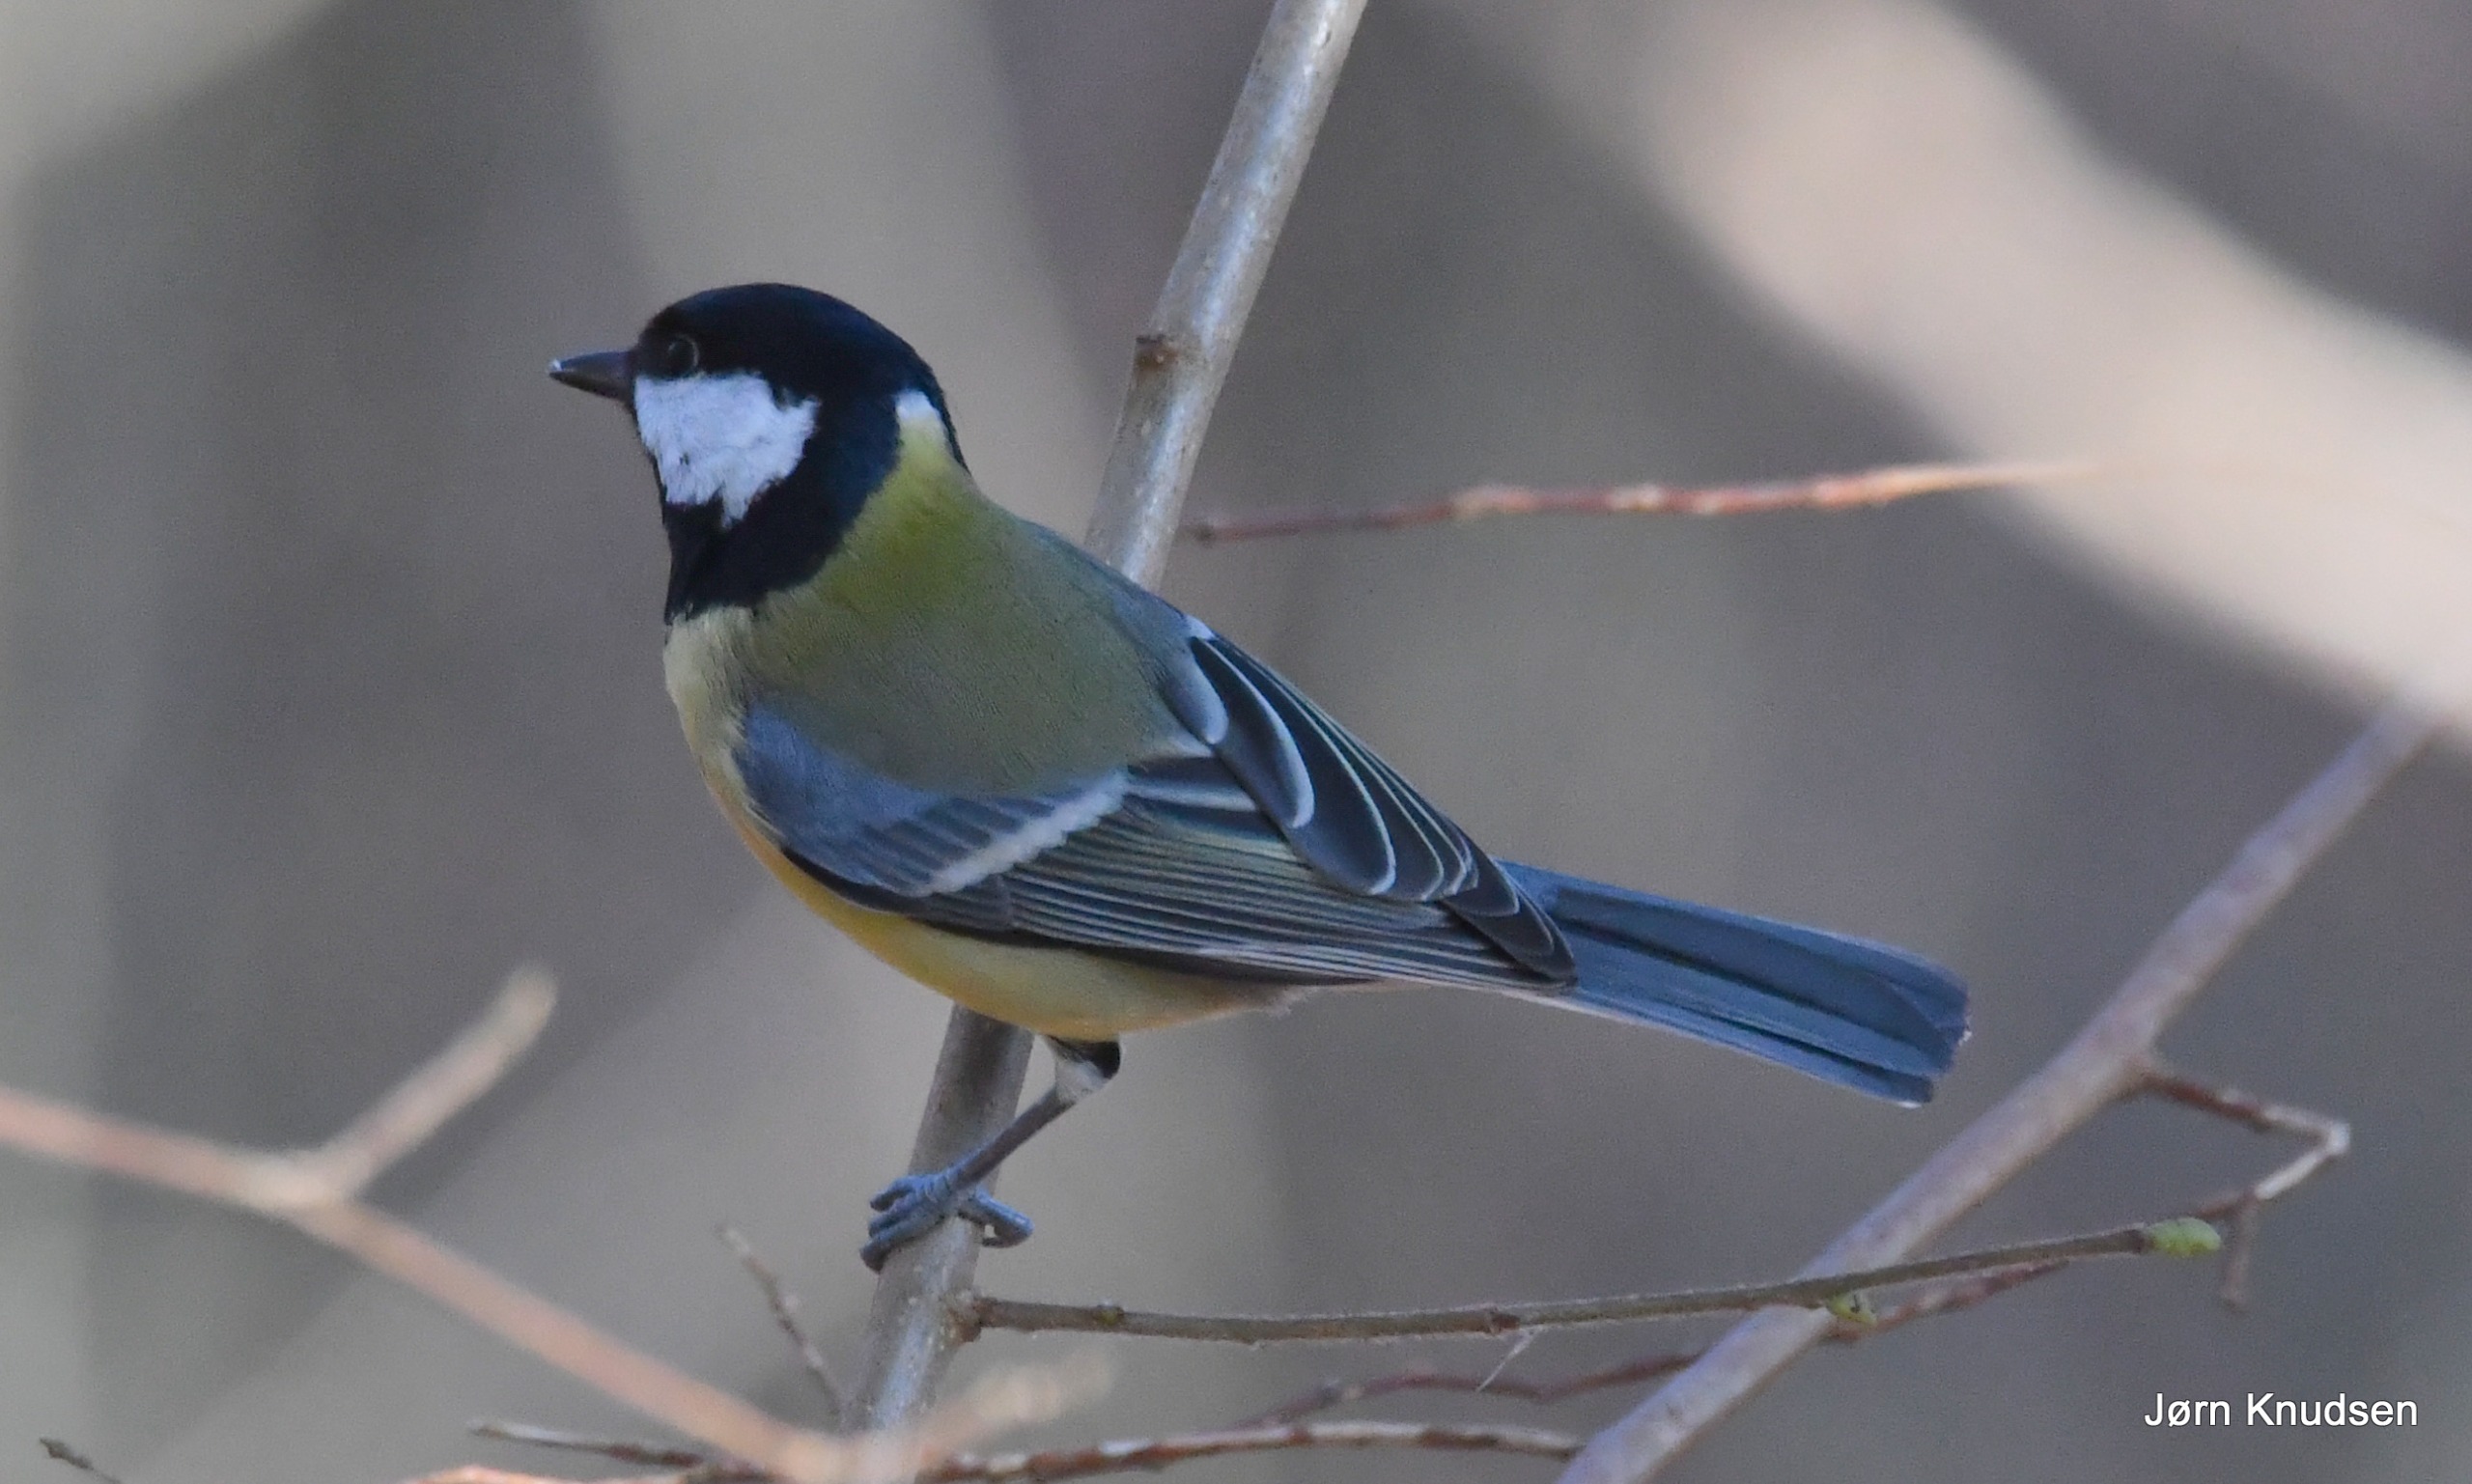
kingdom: Animalia
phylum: Chordata
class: Aves
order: Passeriformes
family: Paridae
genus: Parus
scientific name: Parus major
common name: Musvit
